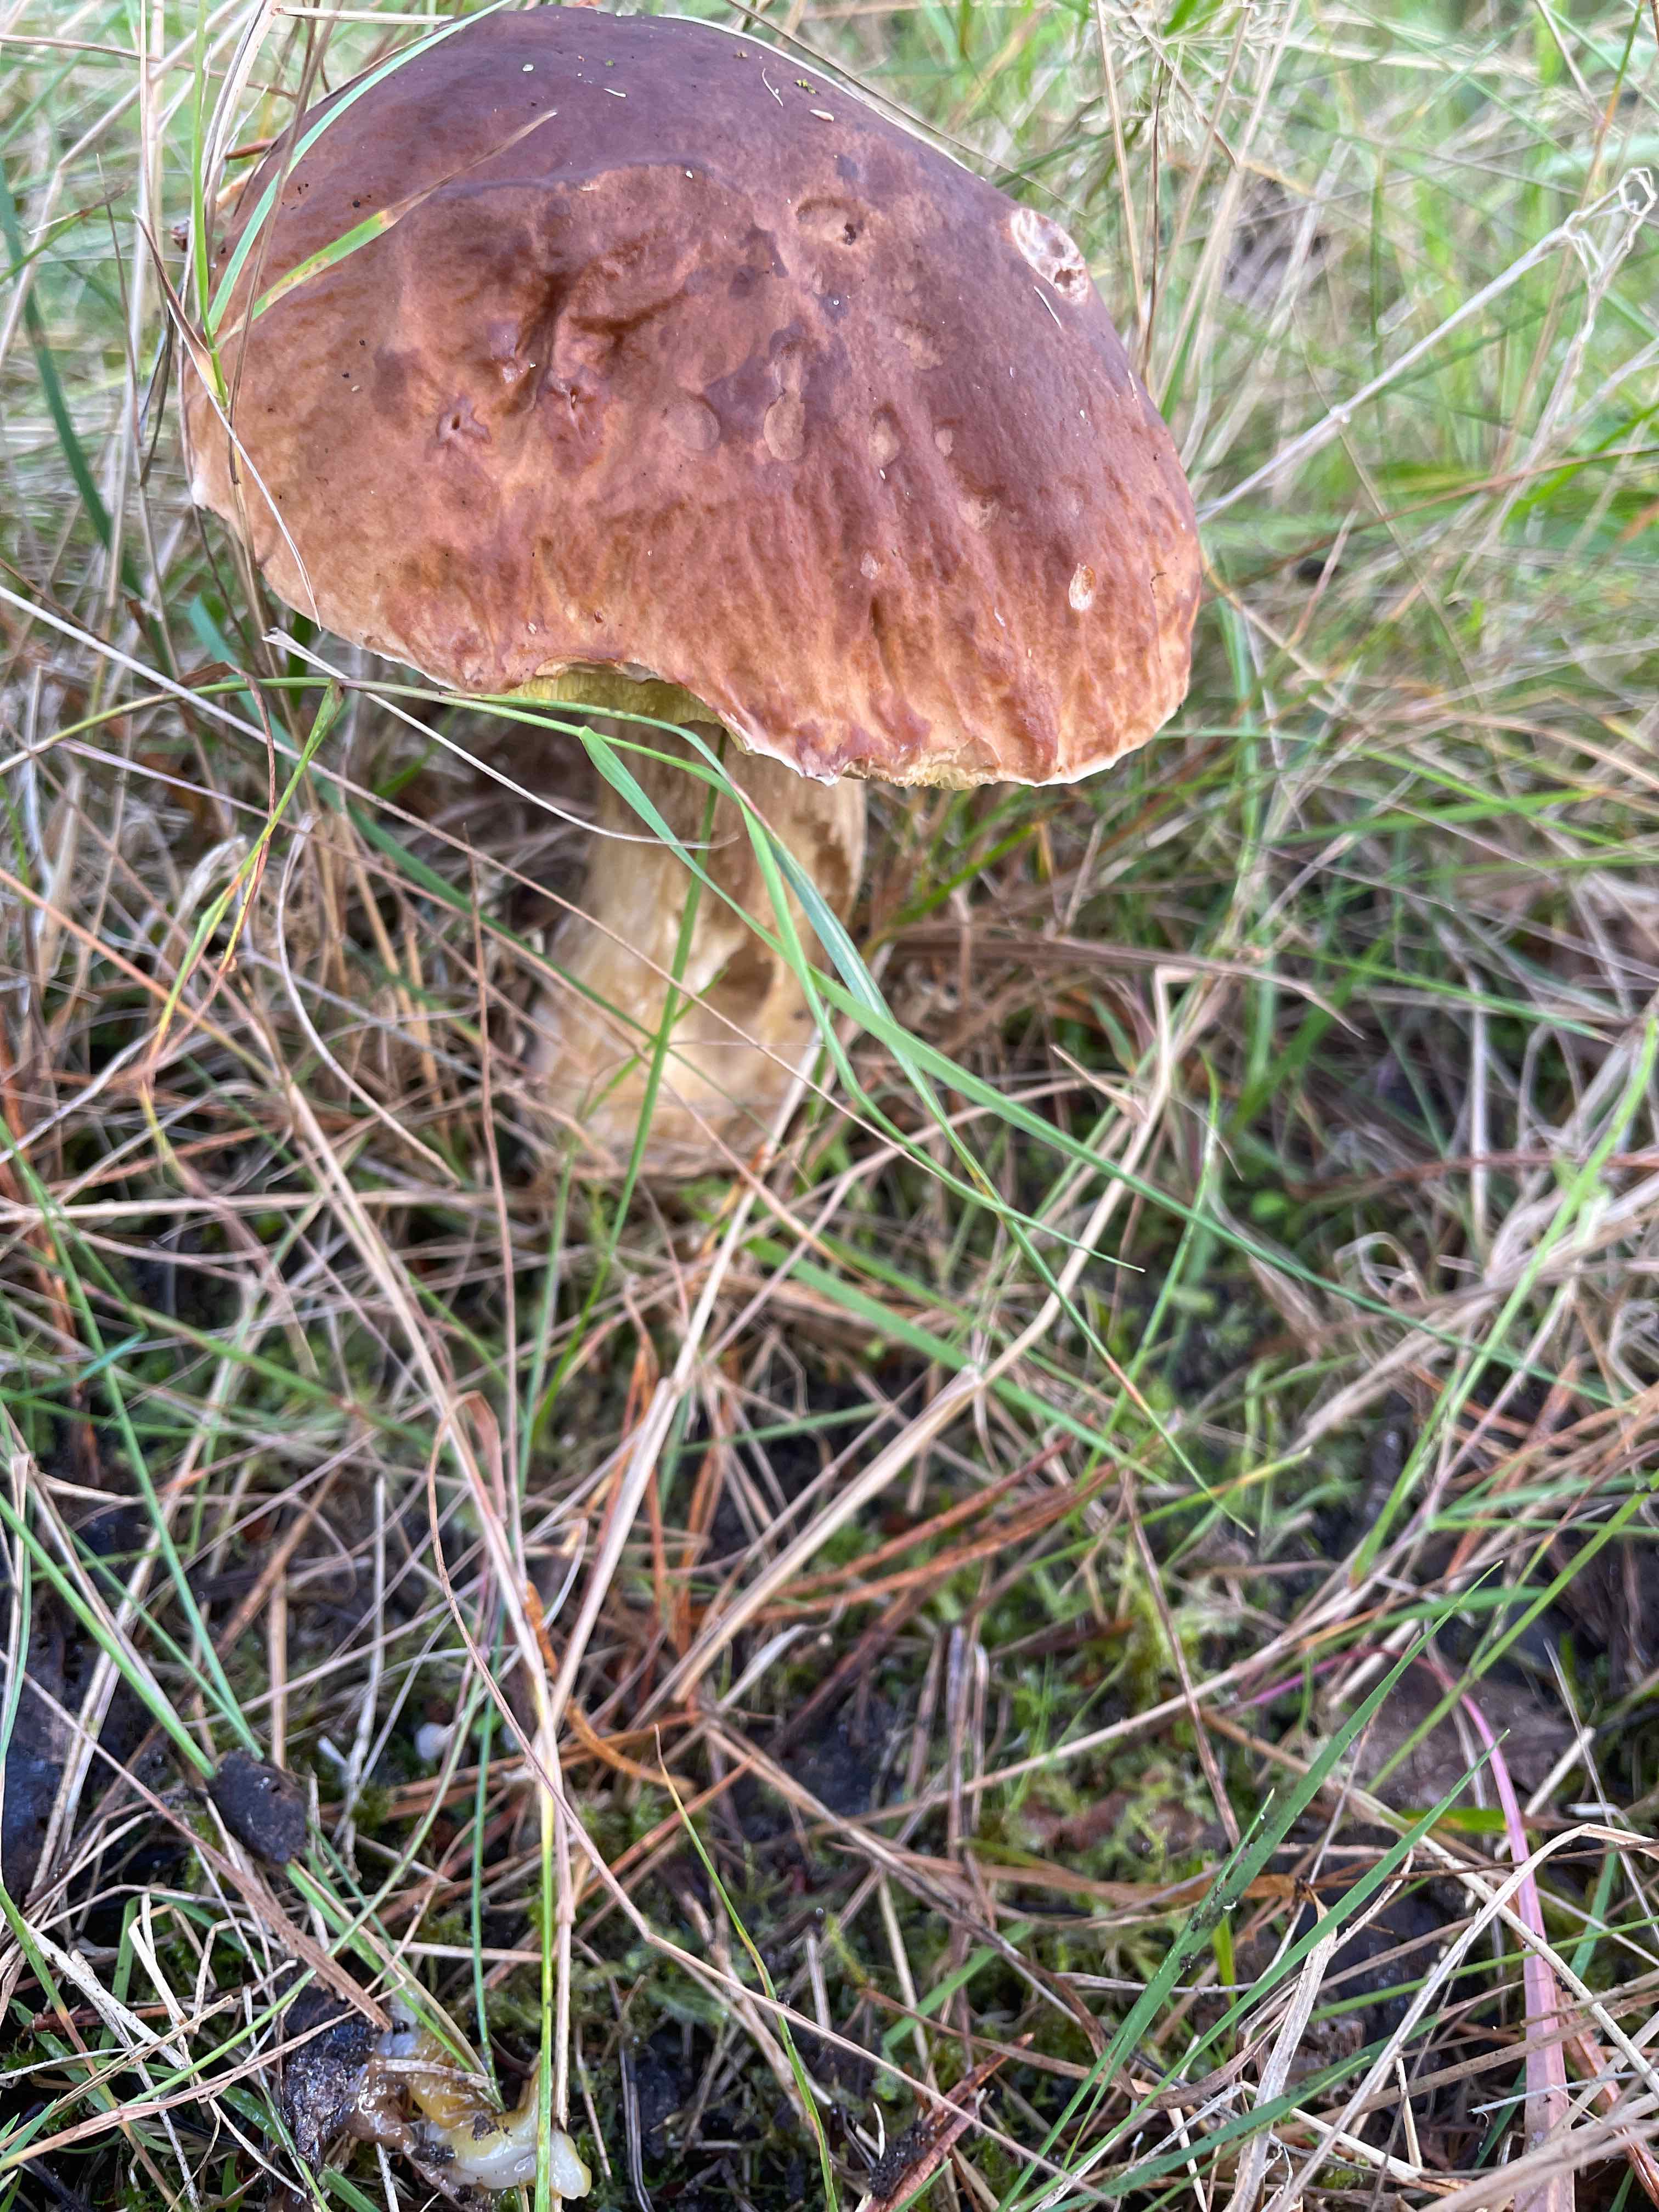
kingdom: Fungi
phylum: Basidiomycota
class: Agaricomycetes
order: Boletales
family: Boletaceae
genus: Boletus
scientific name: Boletus edulis
